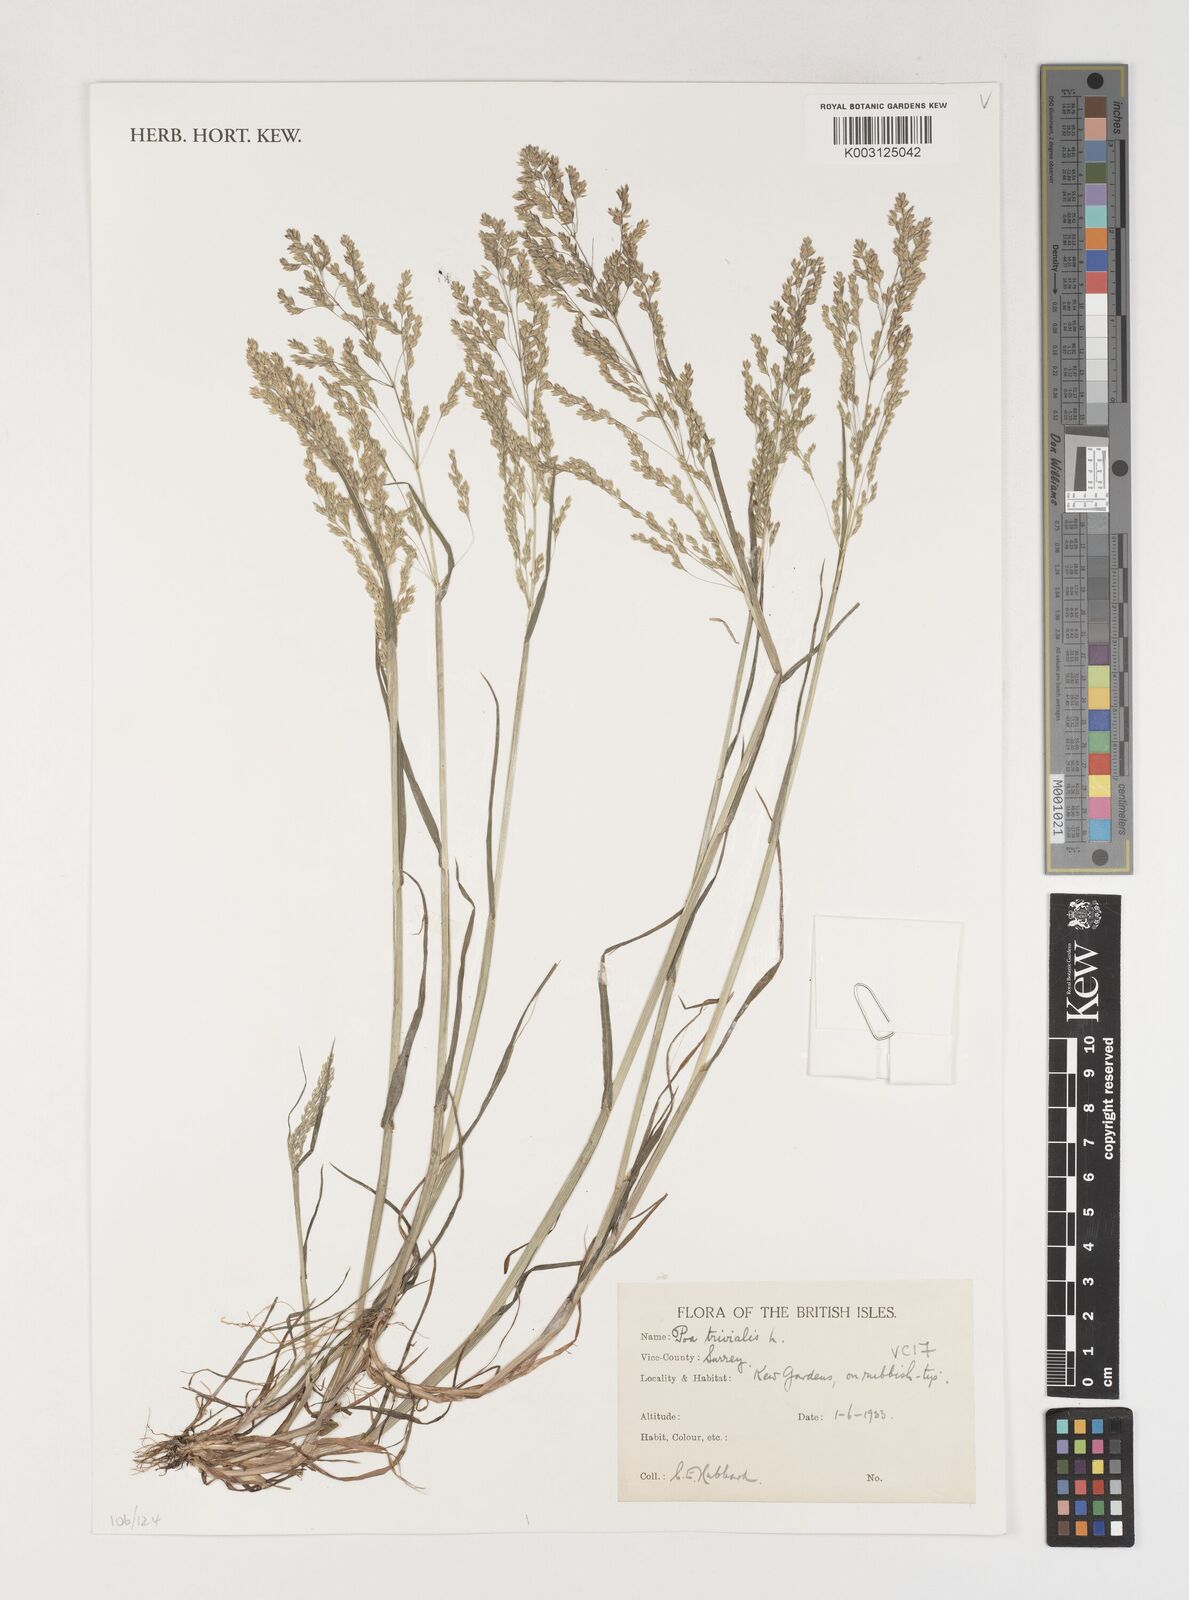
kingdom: Plantae
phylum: Tracheophyta
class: Liliopsida
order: Poales
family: Poaceae
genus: Poa
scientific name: Poa trivialis
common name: Rough bluegrass
